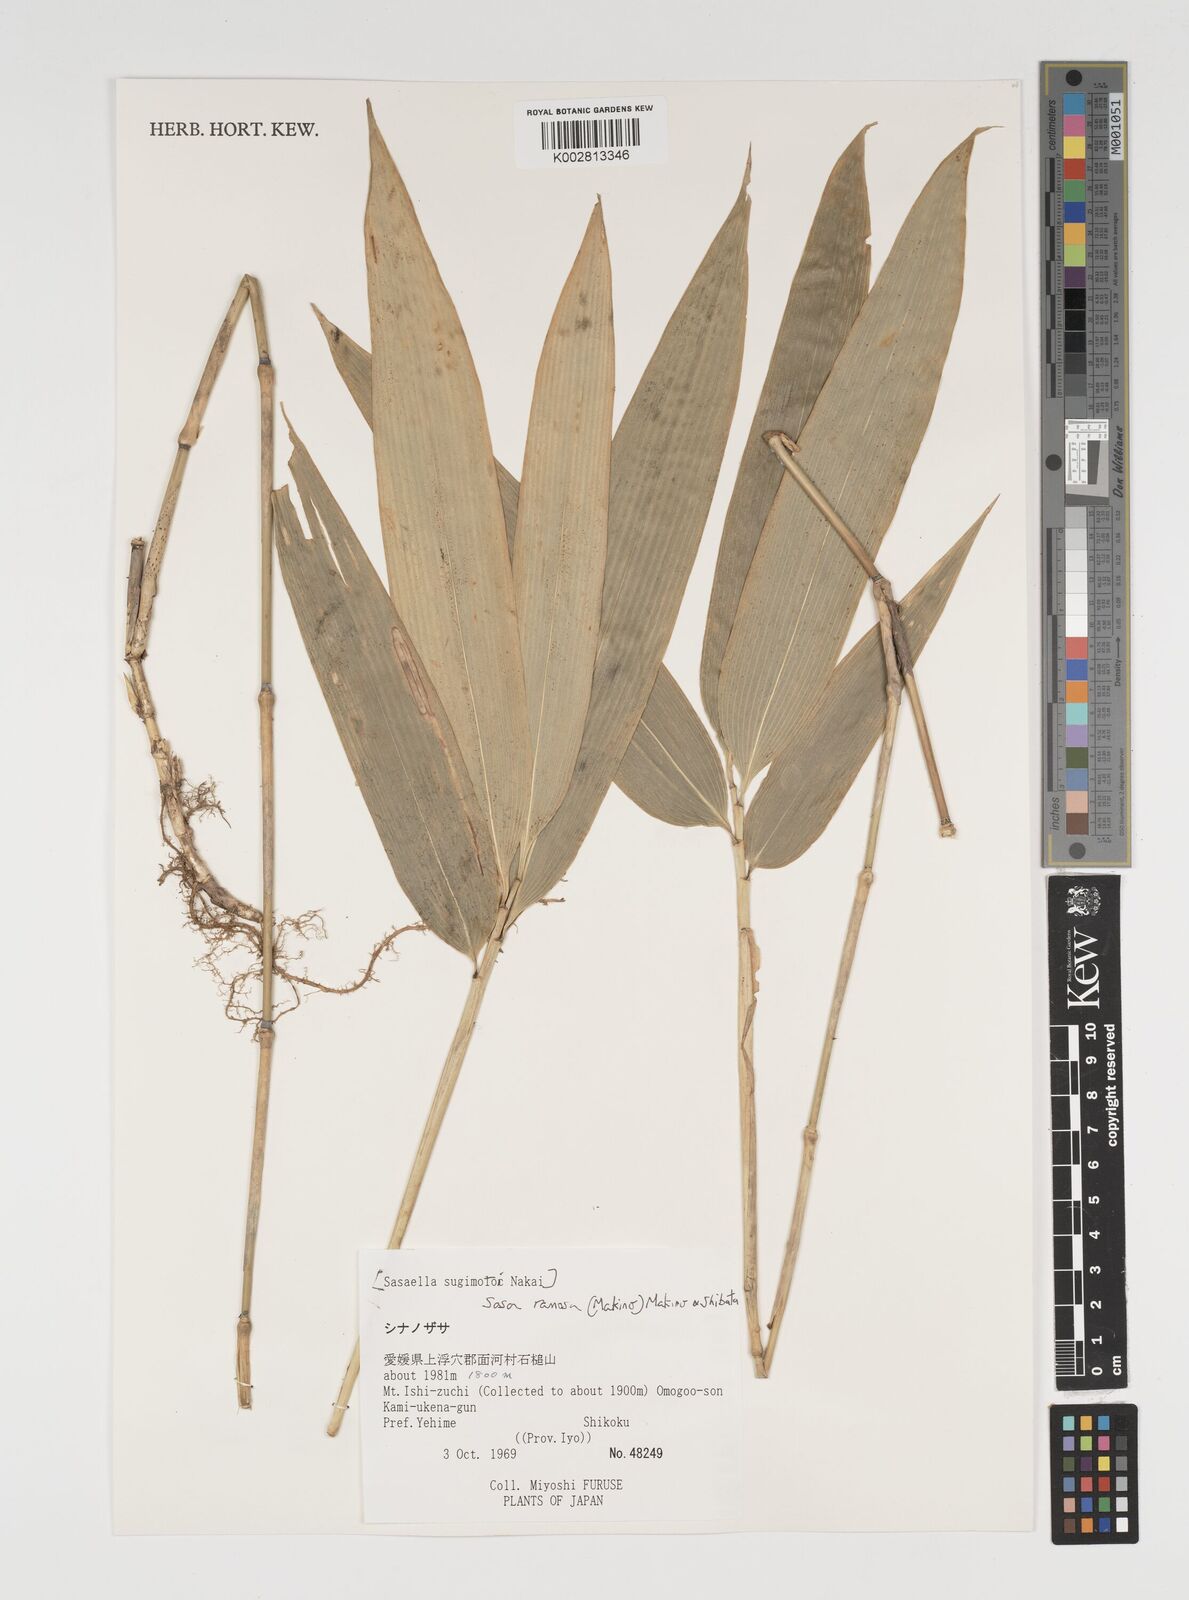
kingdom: Plantae
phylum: Tracheophyta
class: Liliopsida
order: Poales
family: Poaceae
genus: Sasaella
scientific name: Sasaella ramosa
